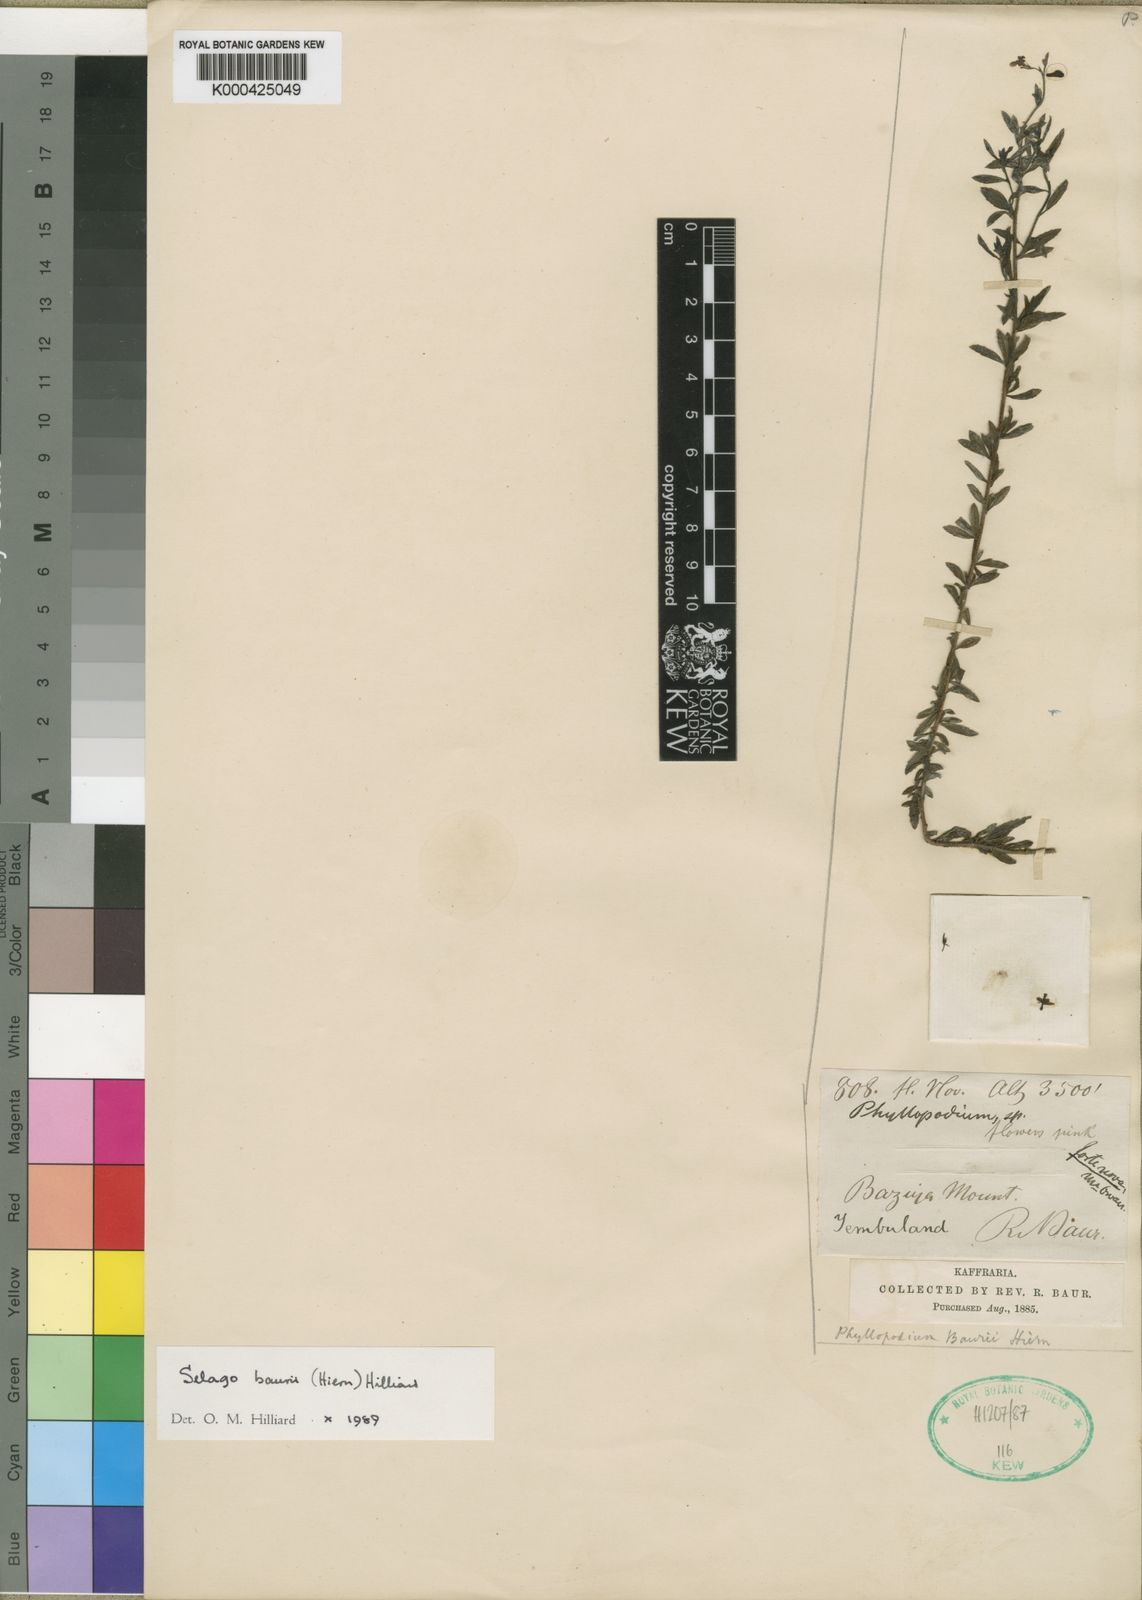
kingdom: Plantae
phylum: Tracheophyta
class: Magnoliopsida
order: Lamiales
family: Scrophulariaceae
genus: Selago
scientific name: Selago baurii
